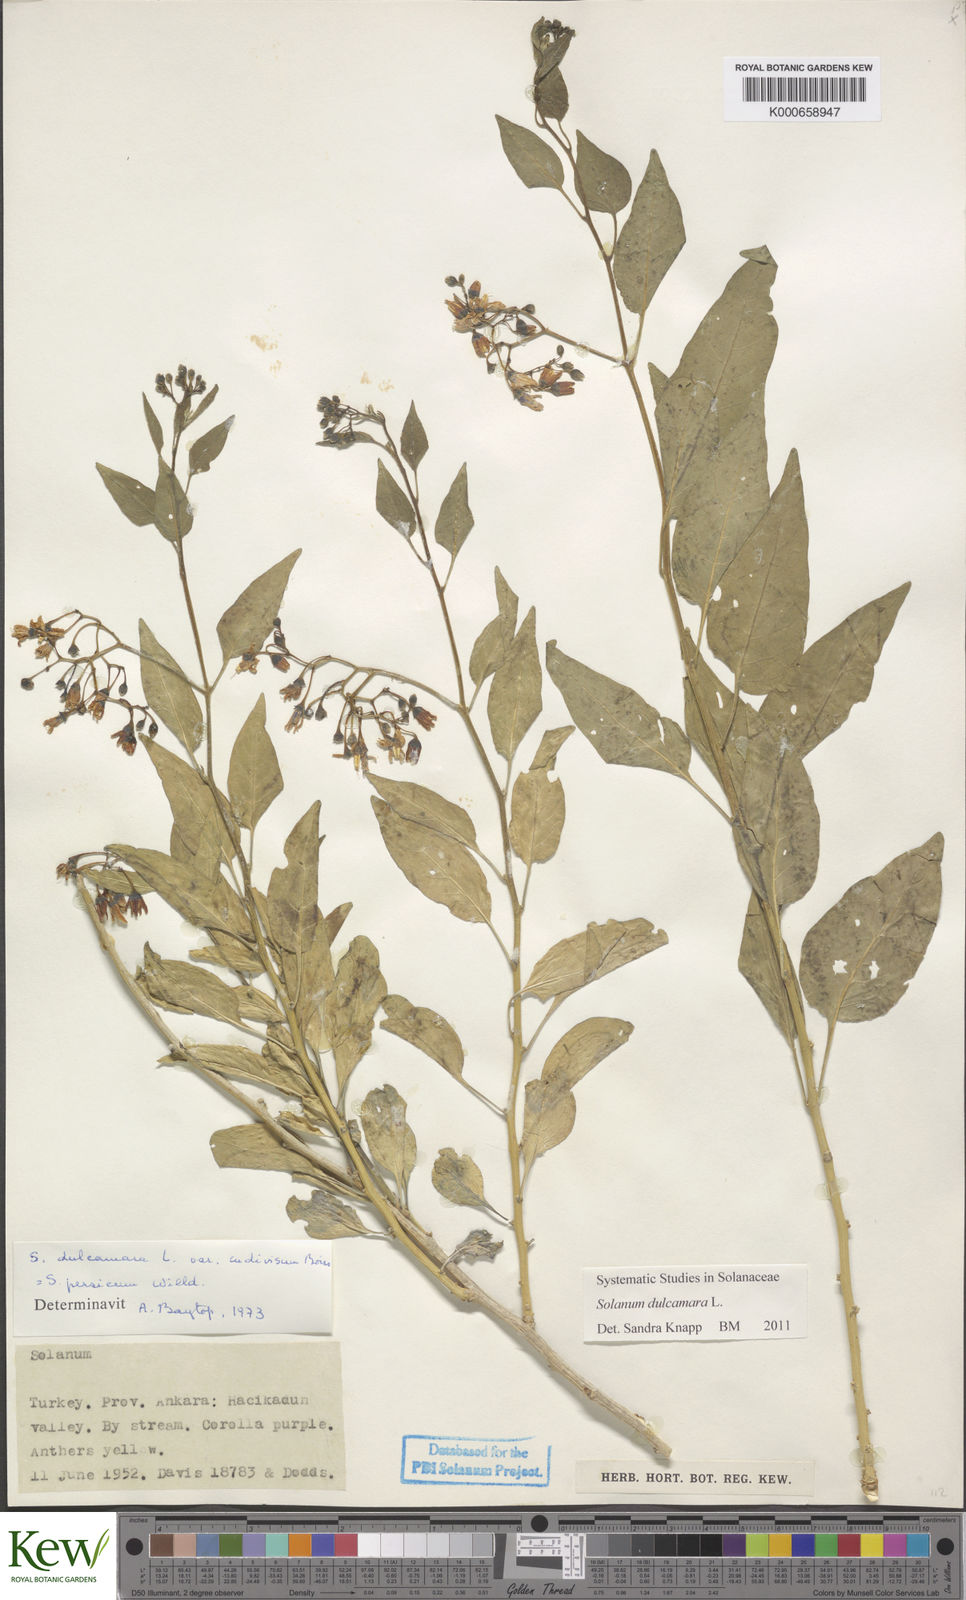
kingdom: Plantae
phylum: Tracheophyta
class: Magnoliopsida
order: Solanales
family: Solanaceae
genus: Solanum
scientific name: Solanum dulcamara
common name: Climbing nightshade
